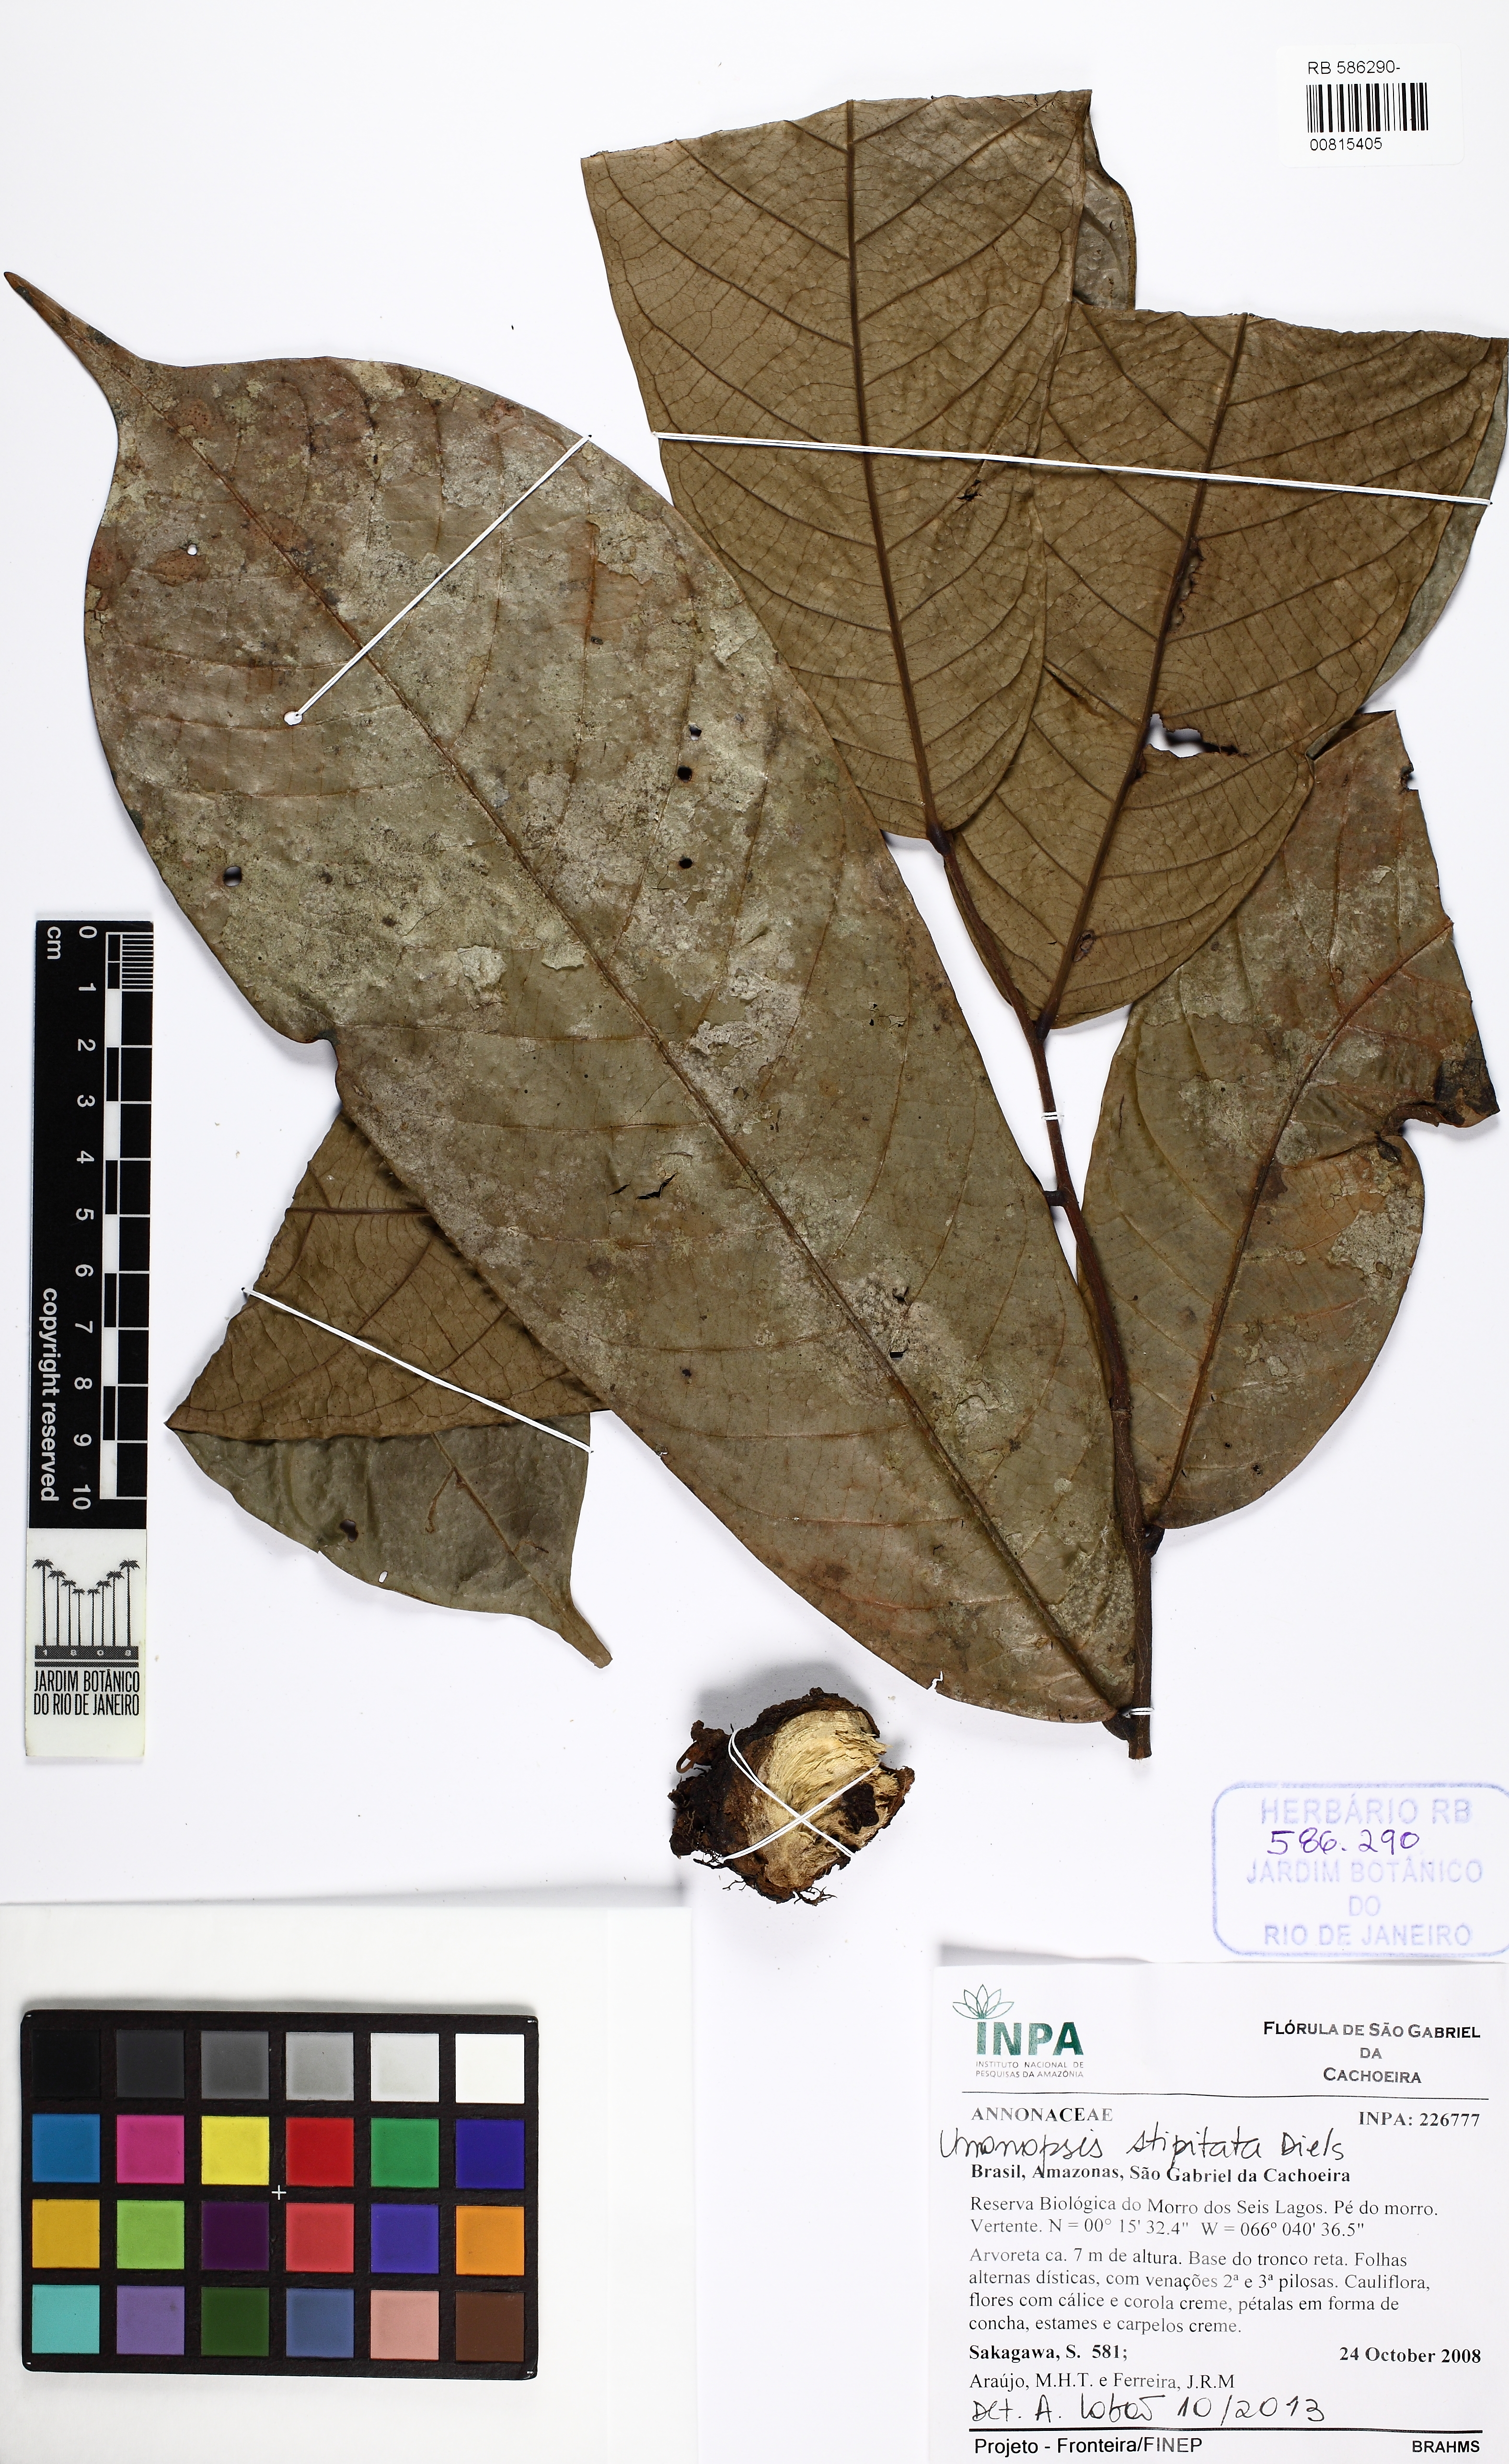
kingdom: Plantae
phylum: Tracheophyta
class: Magnoliopsida
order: Magnoliales
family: Annonaceae
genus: Unonopsis
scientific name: Unonopsis stipitata
